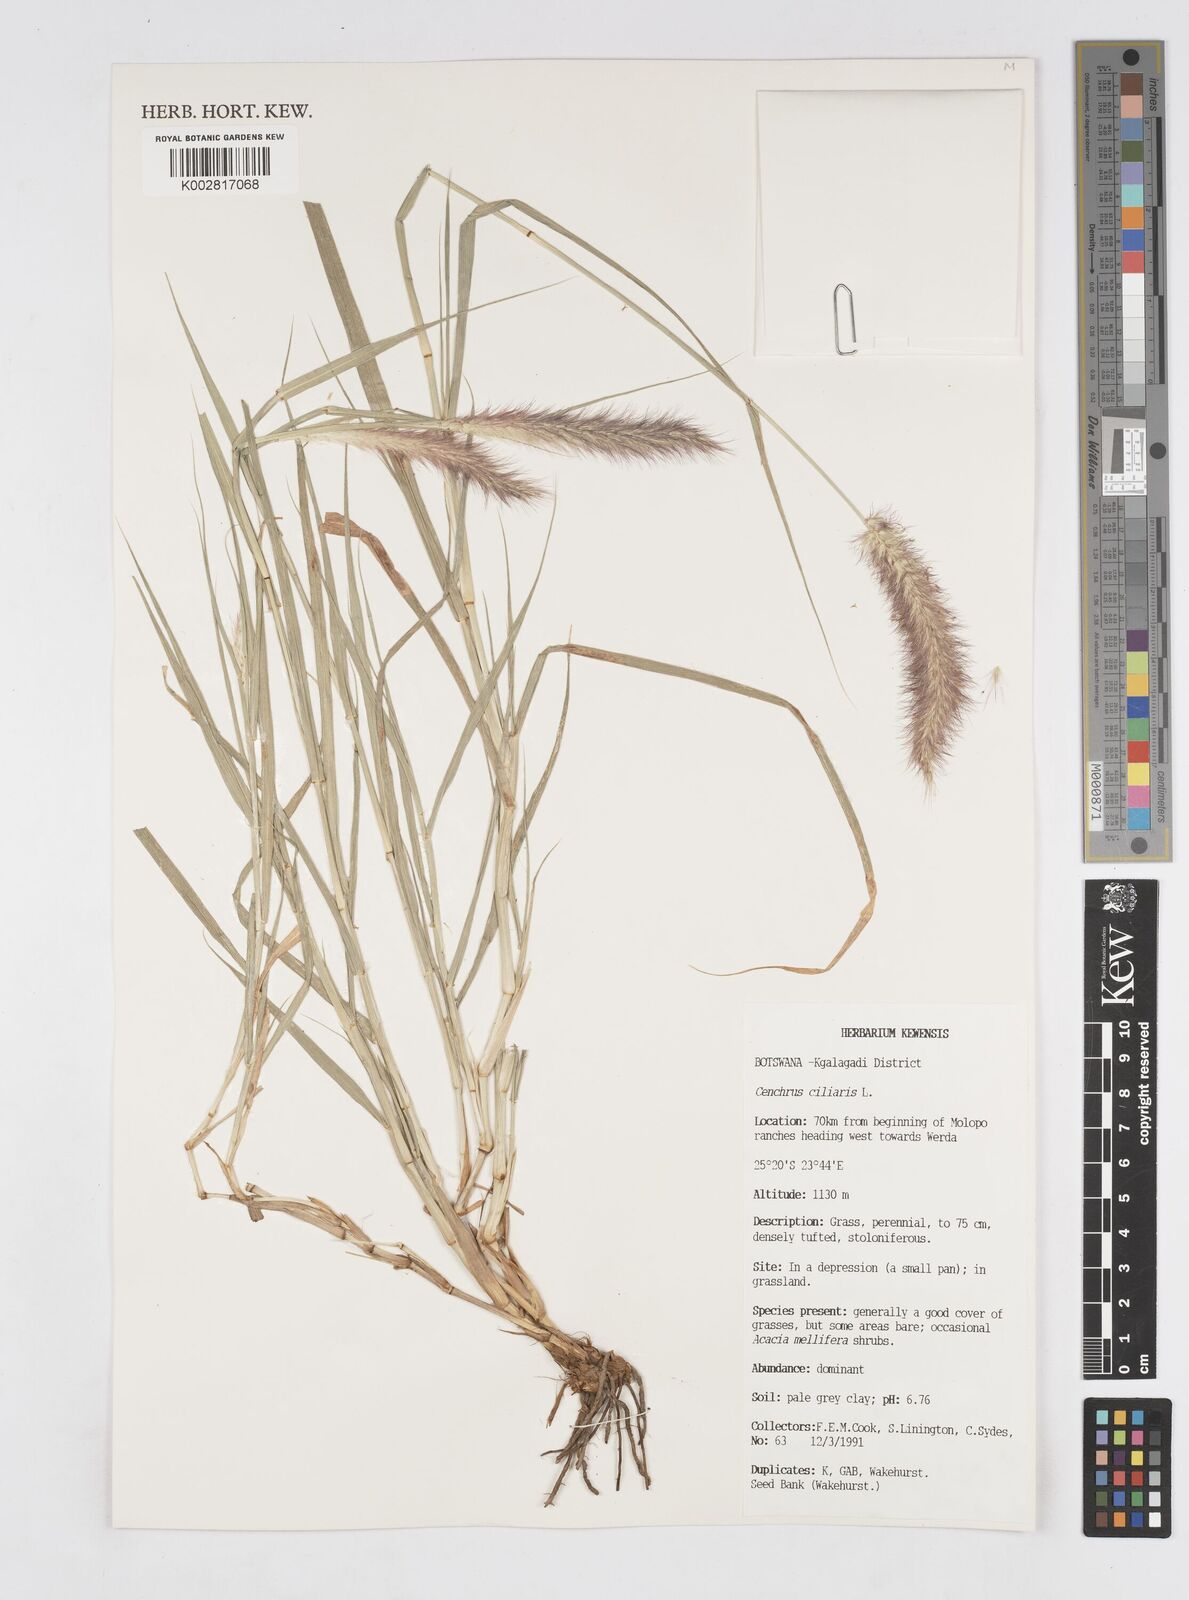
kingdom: Plantae
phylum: Tracheophyta
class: Liliopsida
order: Poales
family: Poaceae
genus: Cenchrus
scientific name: Cenchrus ciliaris
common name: Buffelgrass
